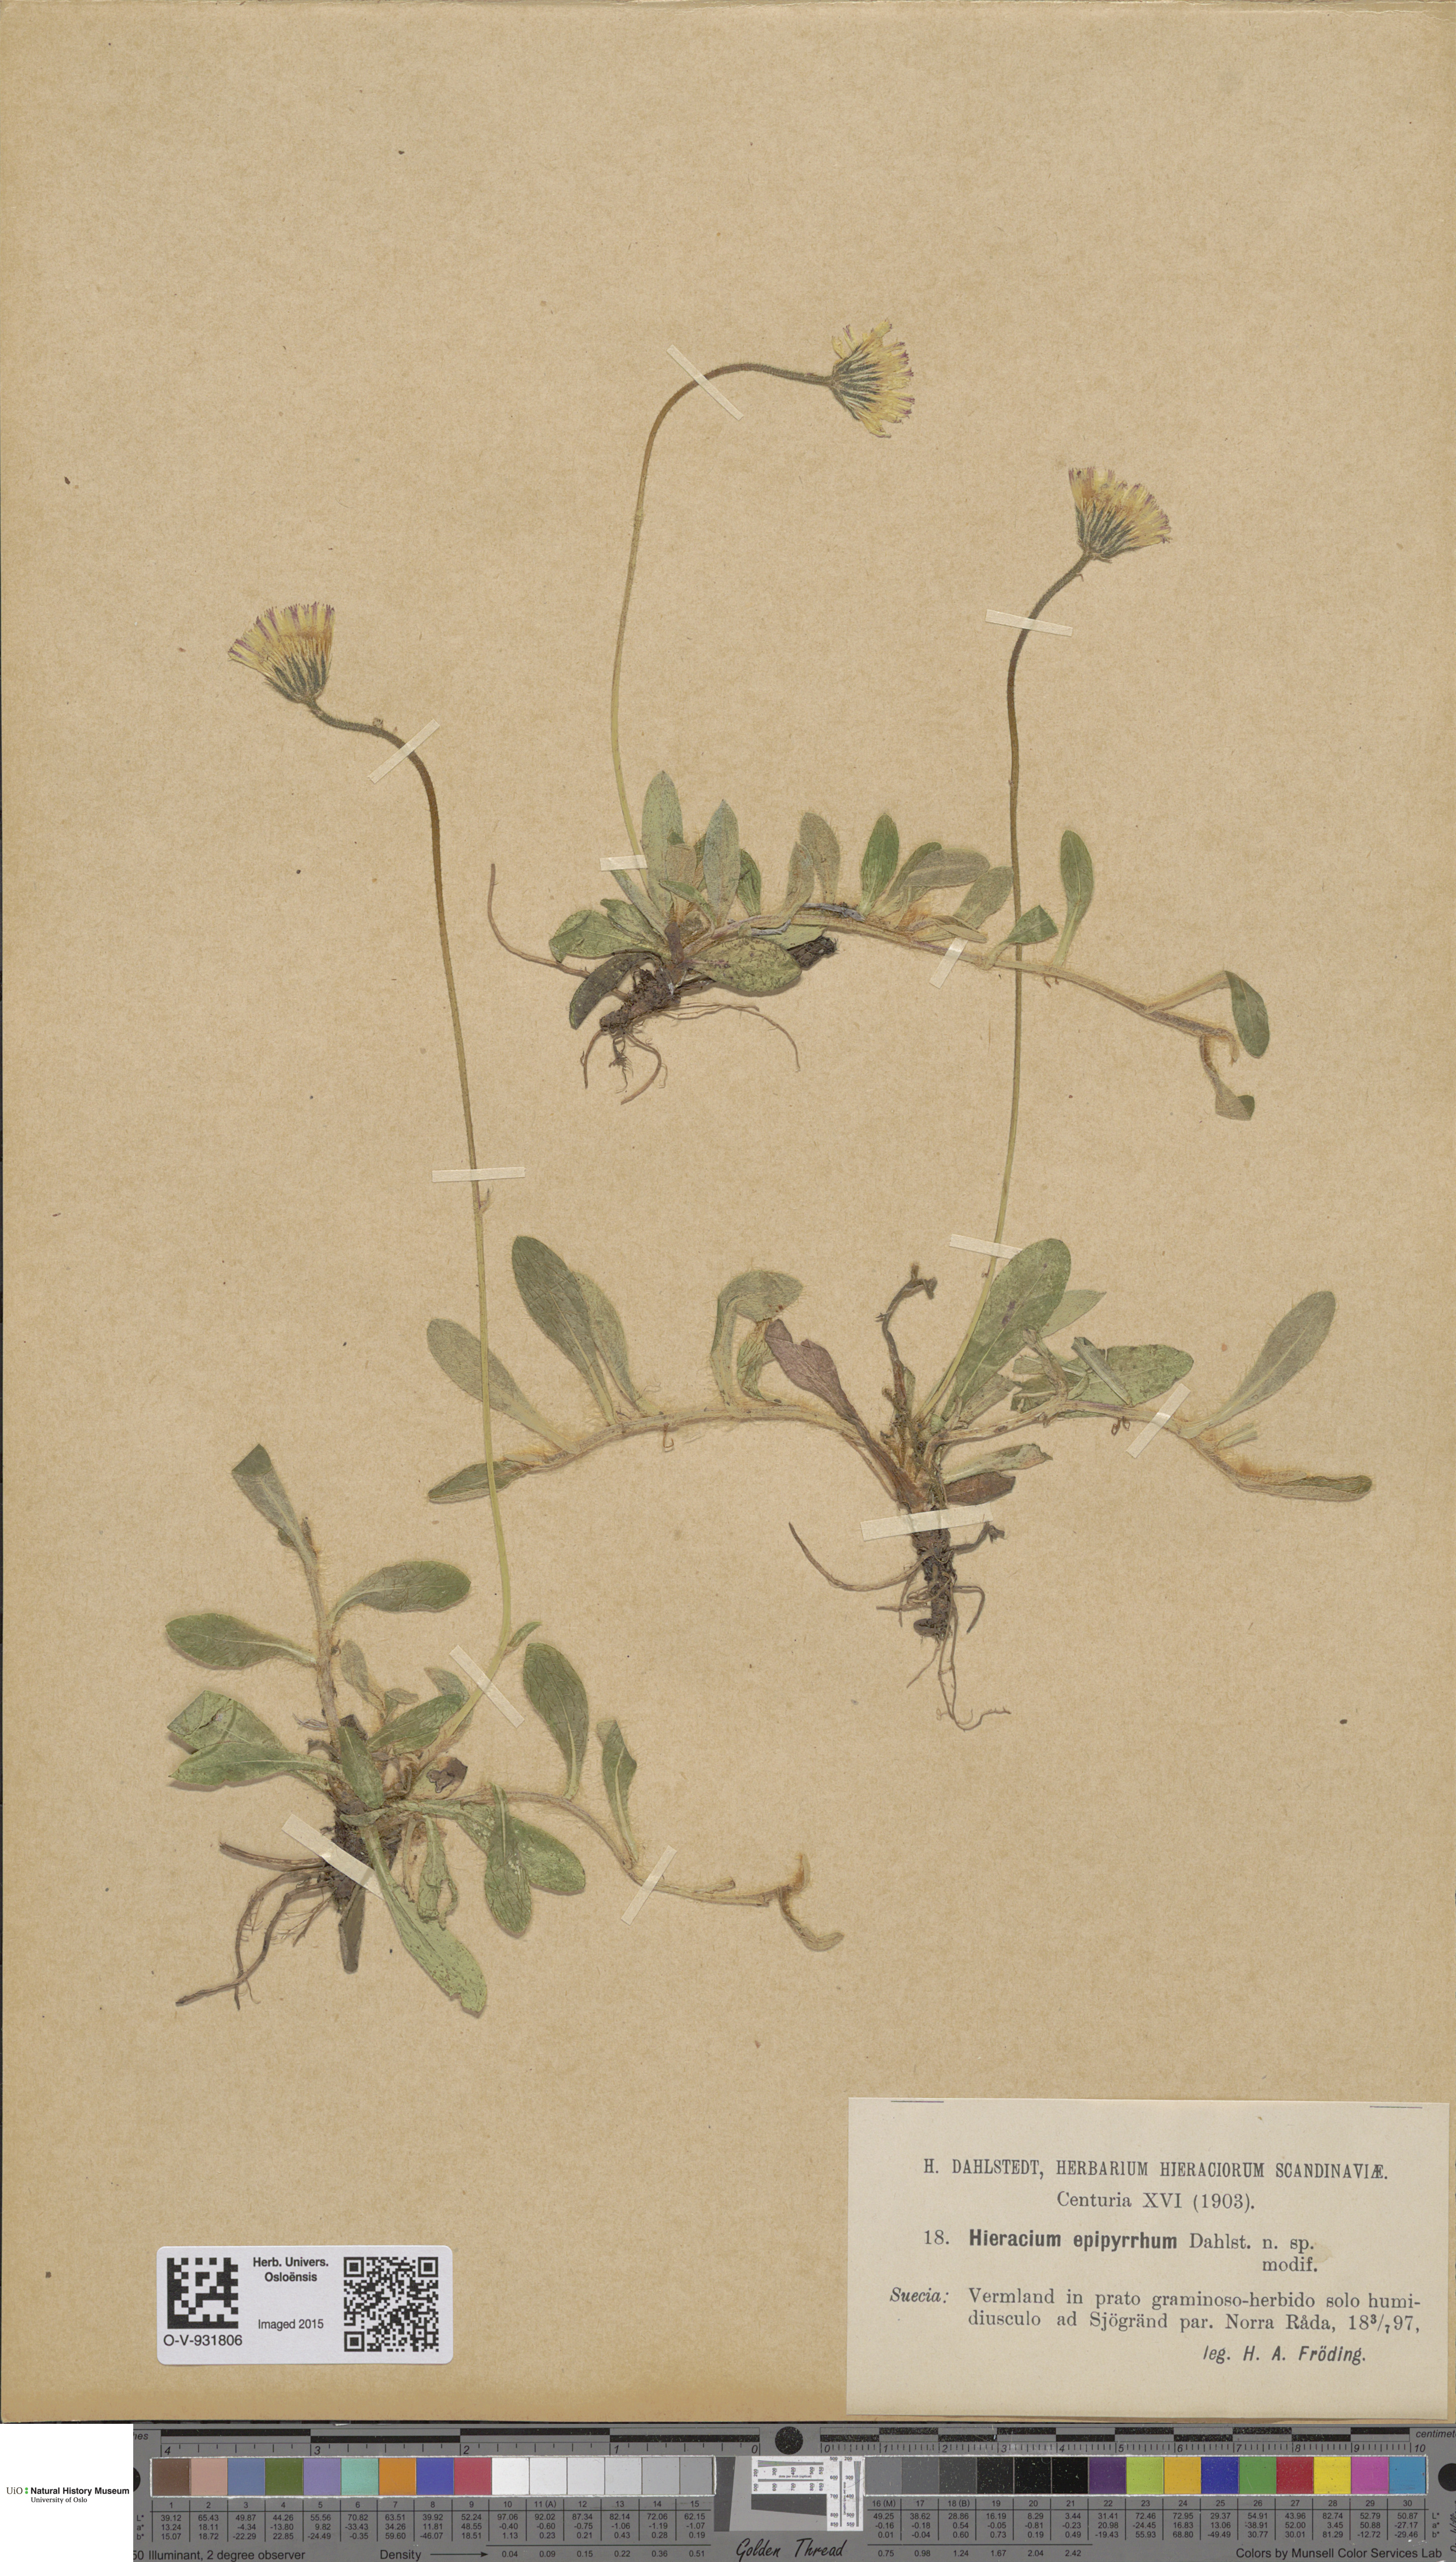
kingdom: Plantae
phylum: Tracheophyta
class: Magnoliopsida
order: Asterales
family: Asteraceae
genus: Hieracium
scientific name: Hieracium
